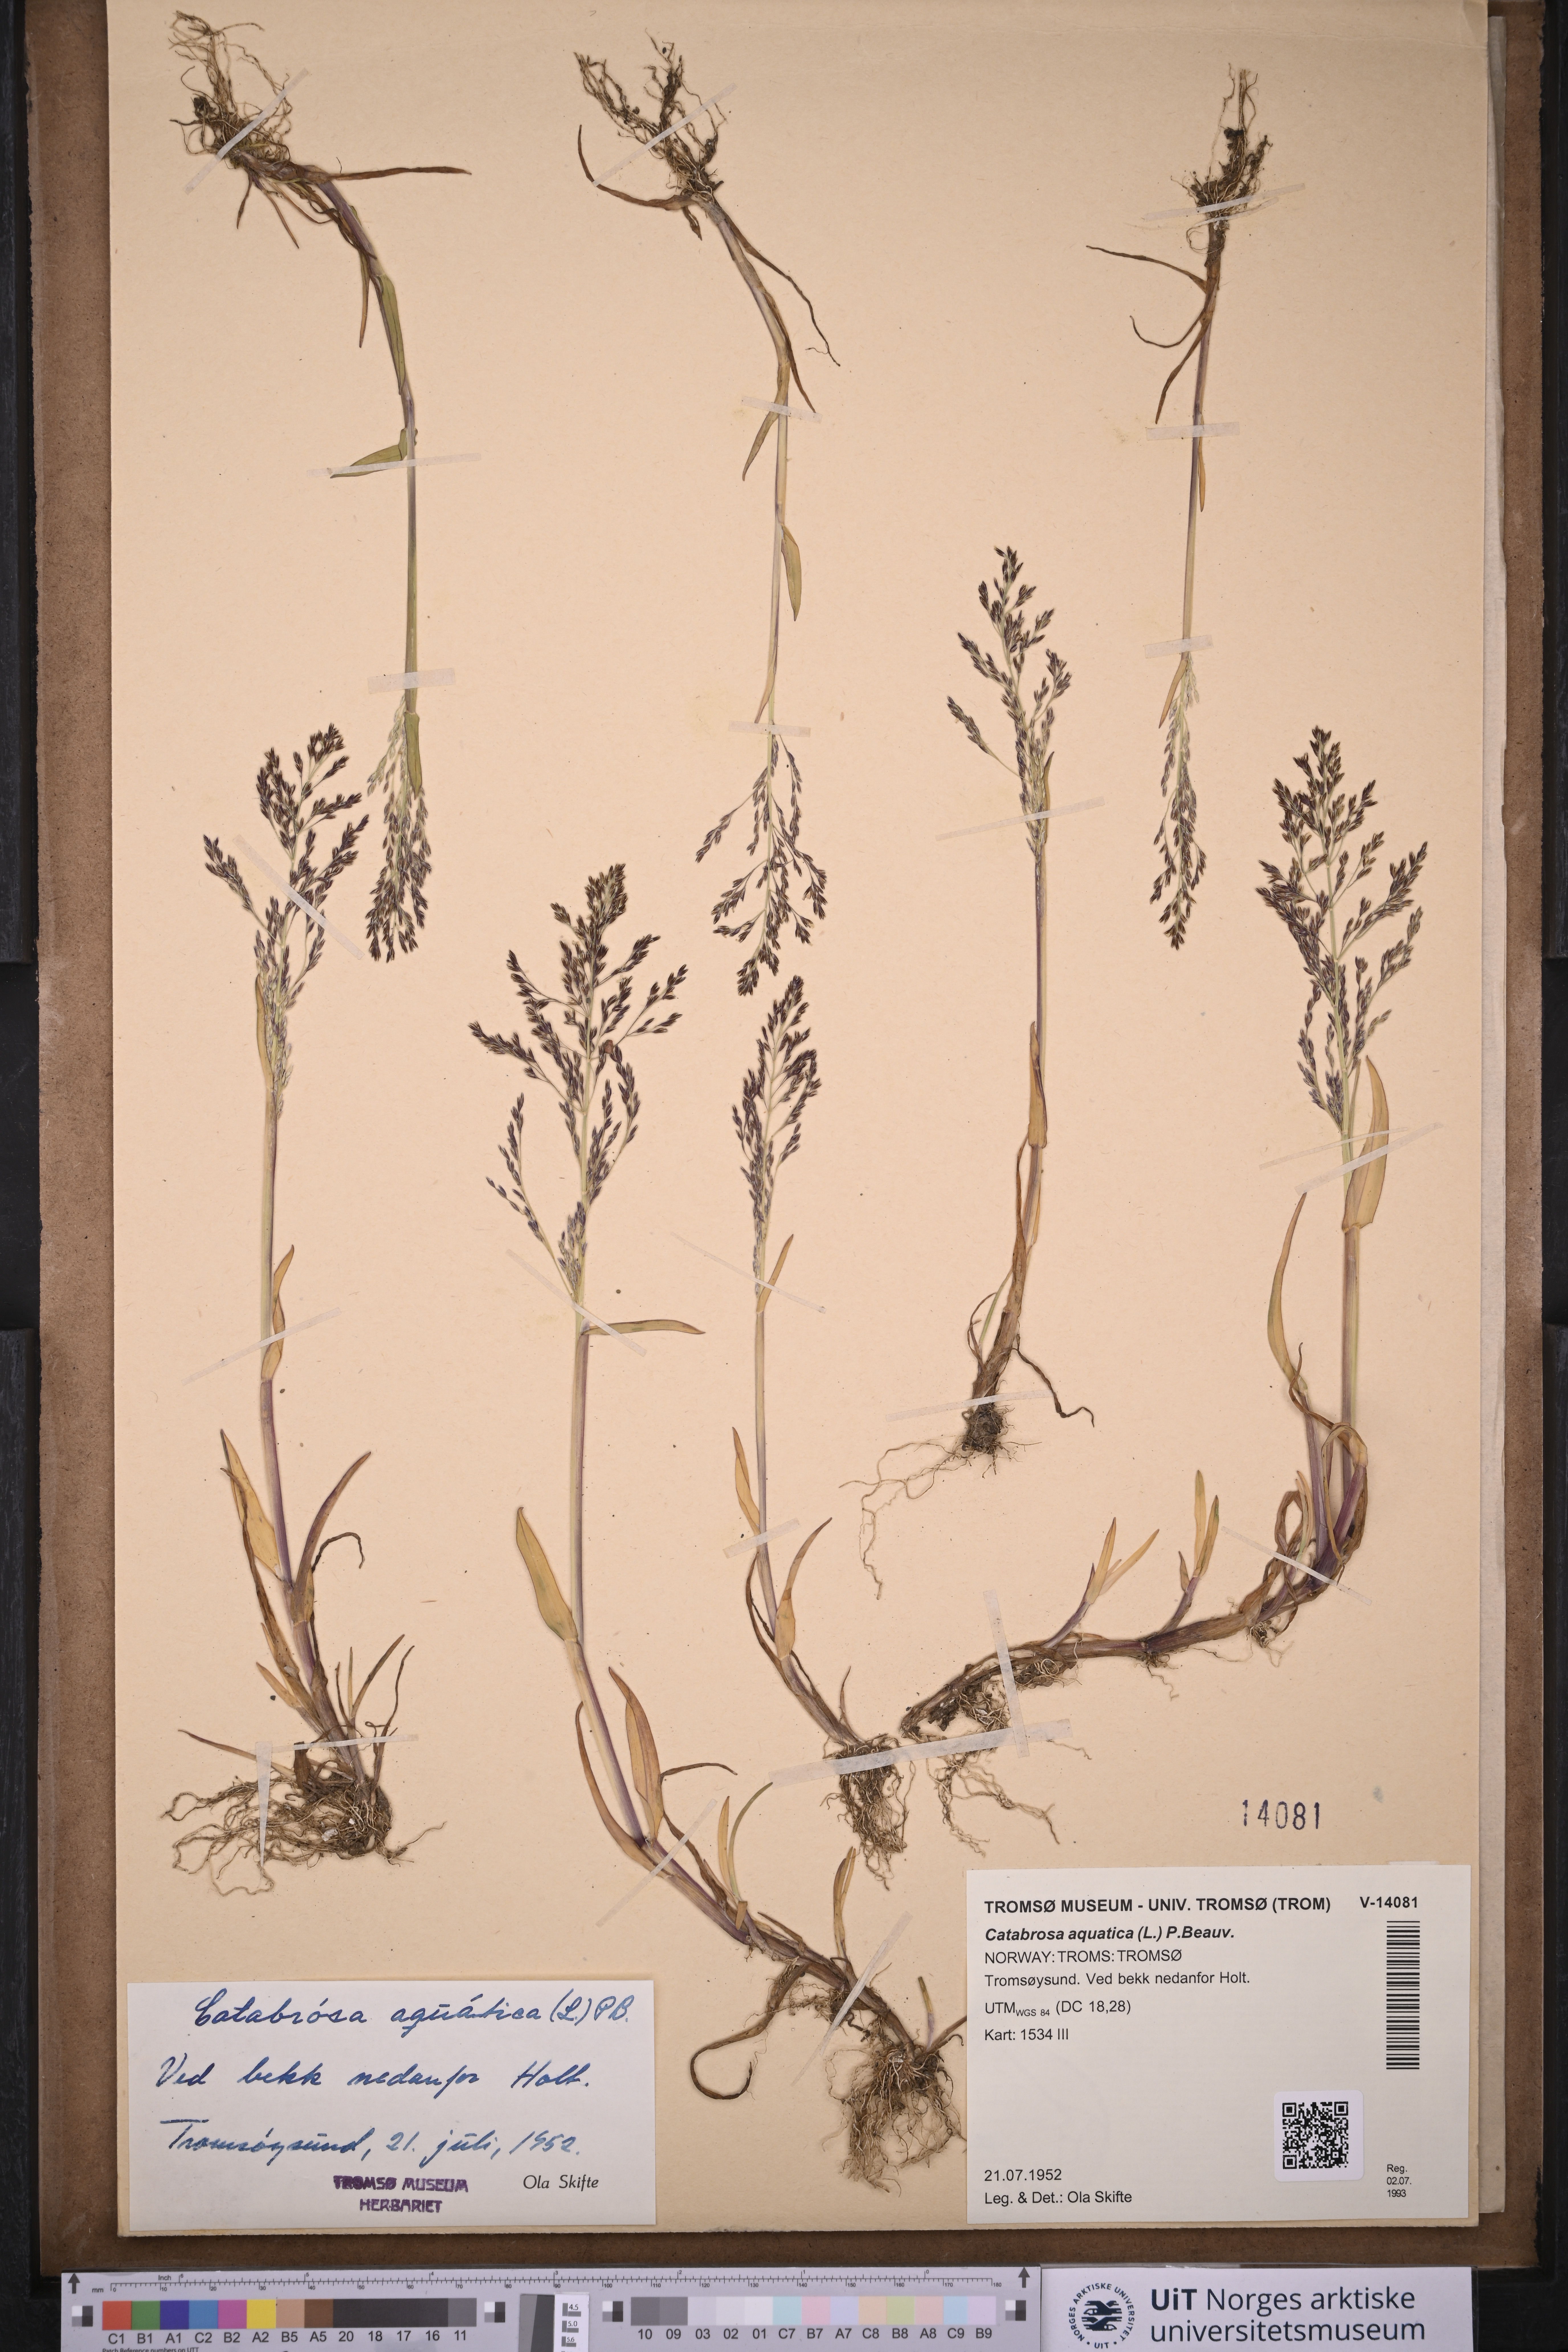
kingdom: Plantae
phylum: Tracheophyta
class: Liliopsida
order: Poales
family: Poaceae
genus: Catabrosa
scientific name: Catabrosa aquatica
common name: Whorl-grass
